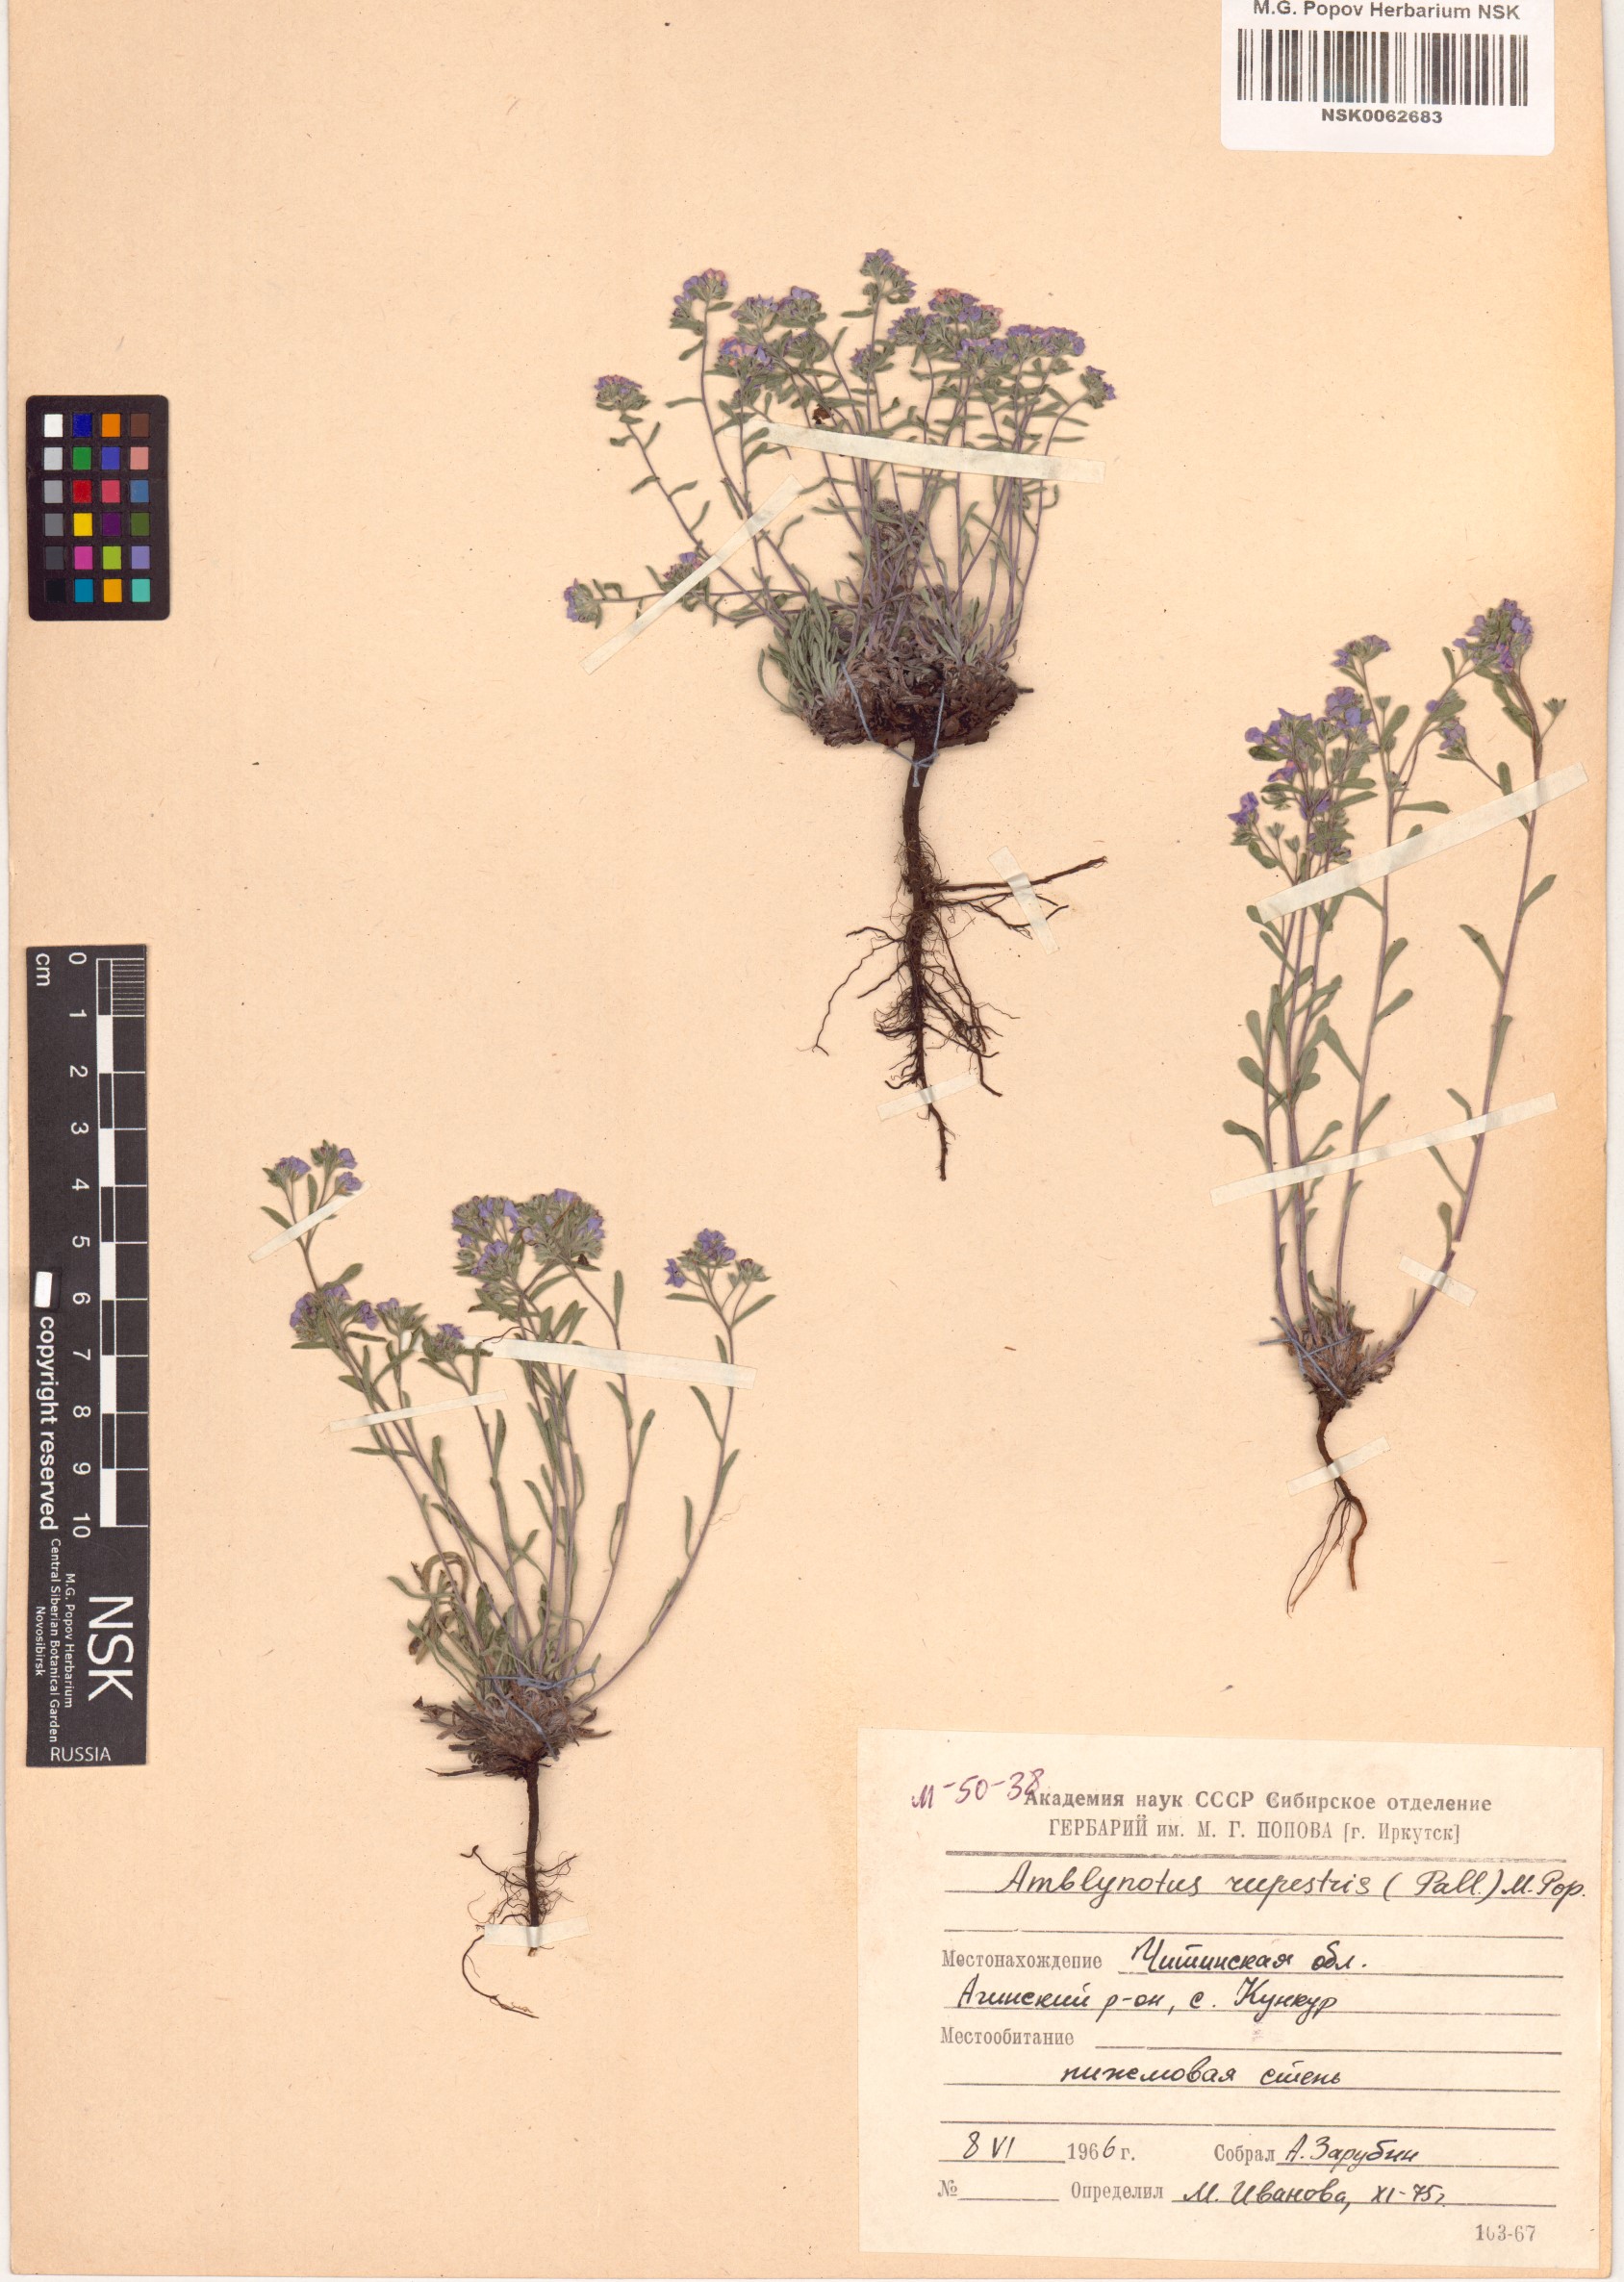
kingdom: Plantae
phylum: Tracheophyta
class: Magnoliopsida
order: Boraginales
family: Boraginaceae
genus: Eritrichium
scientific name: Eritrichium rupestre
